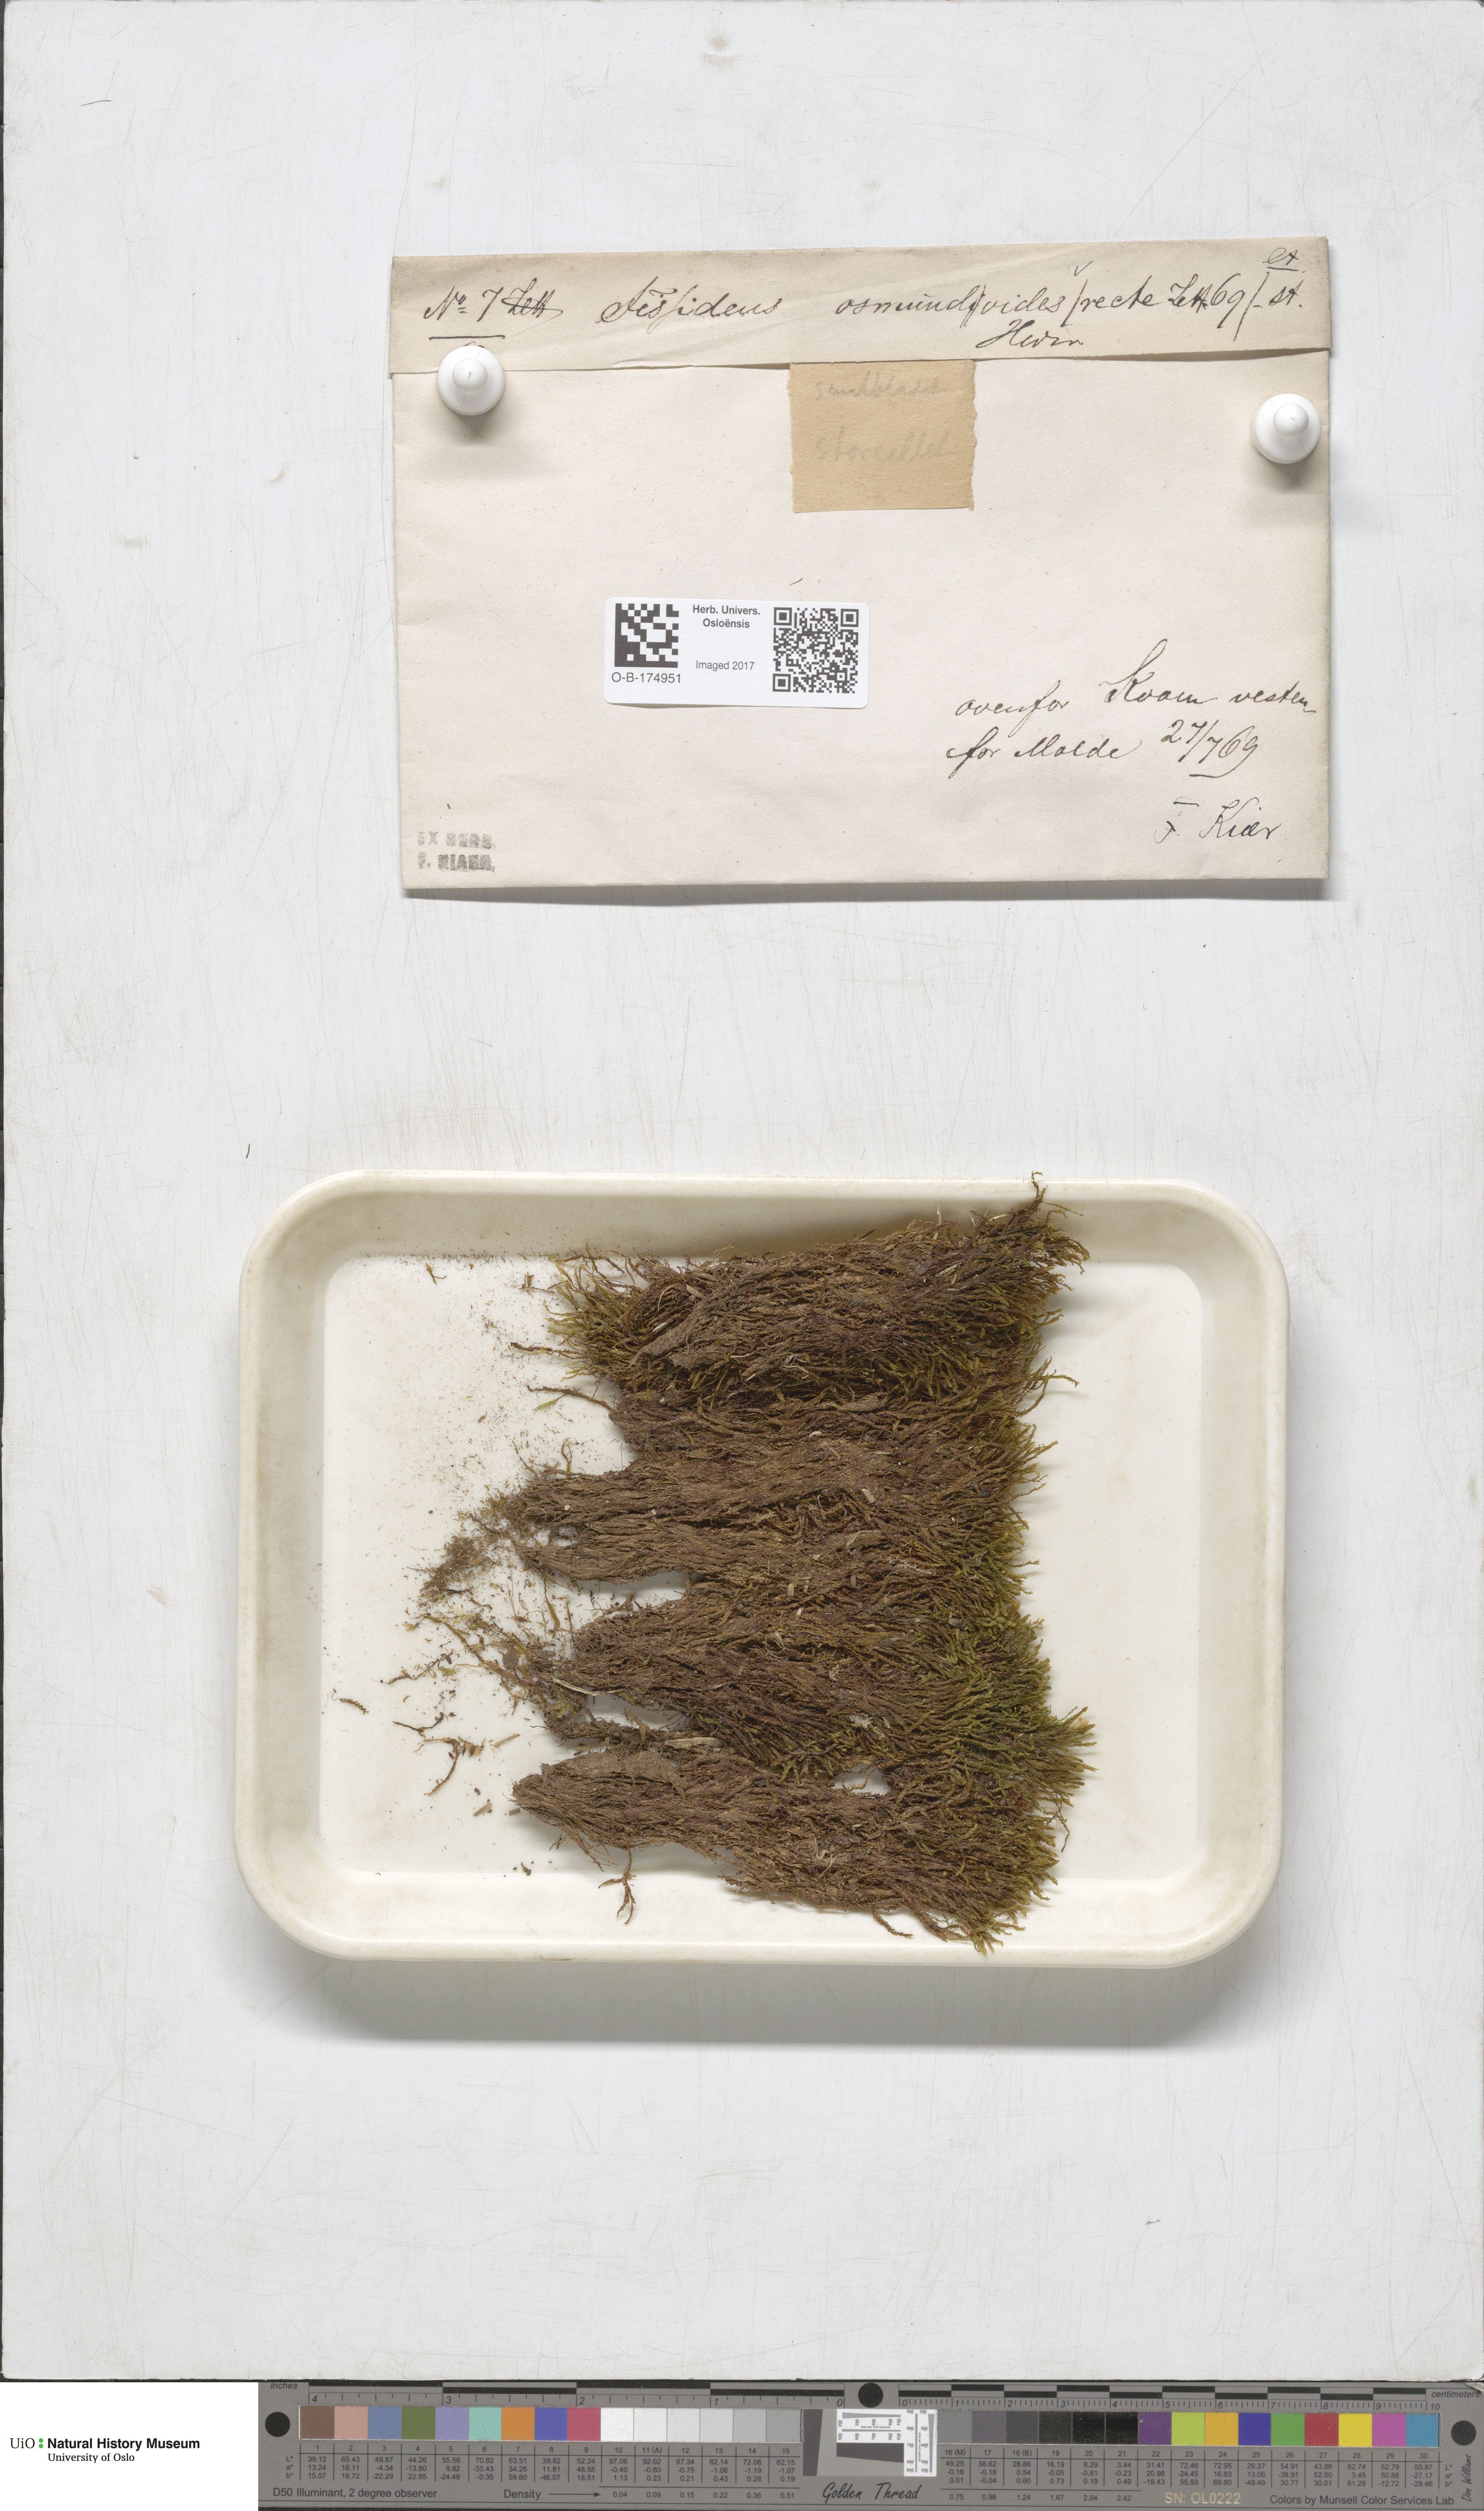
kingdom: Plantae
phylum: Bryophyta
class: Bryopsida
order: Dicranales
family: Fissidentaceae
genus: Fissidens
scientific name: Fissidens osmundoides
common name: Purple-stalked pocket moss
